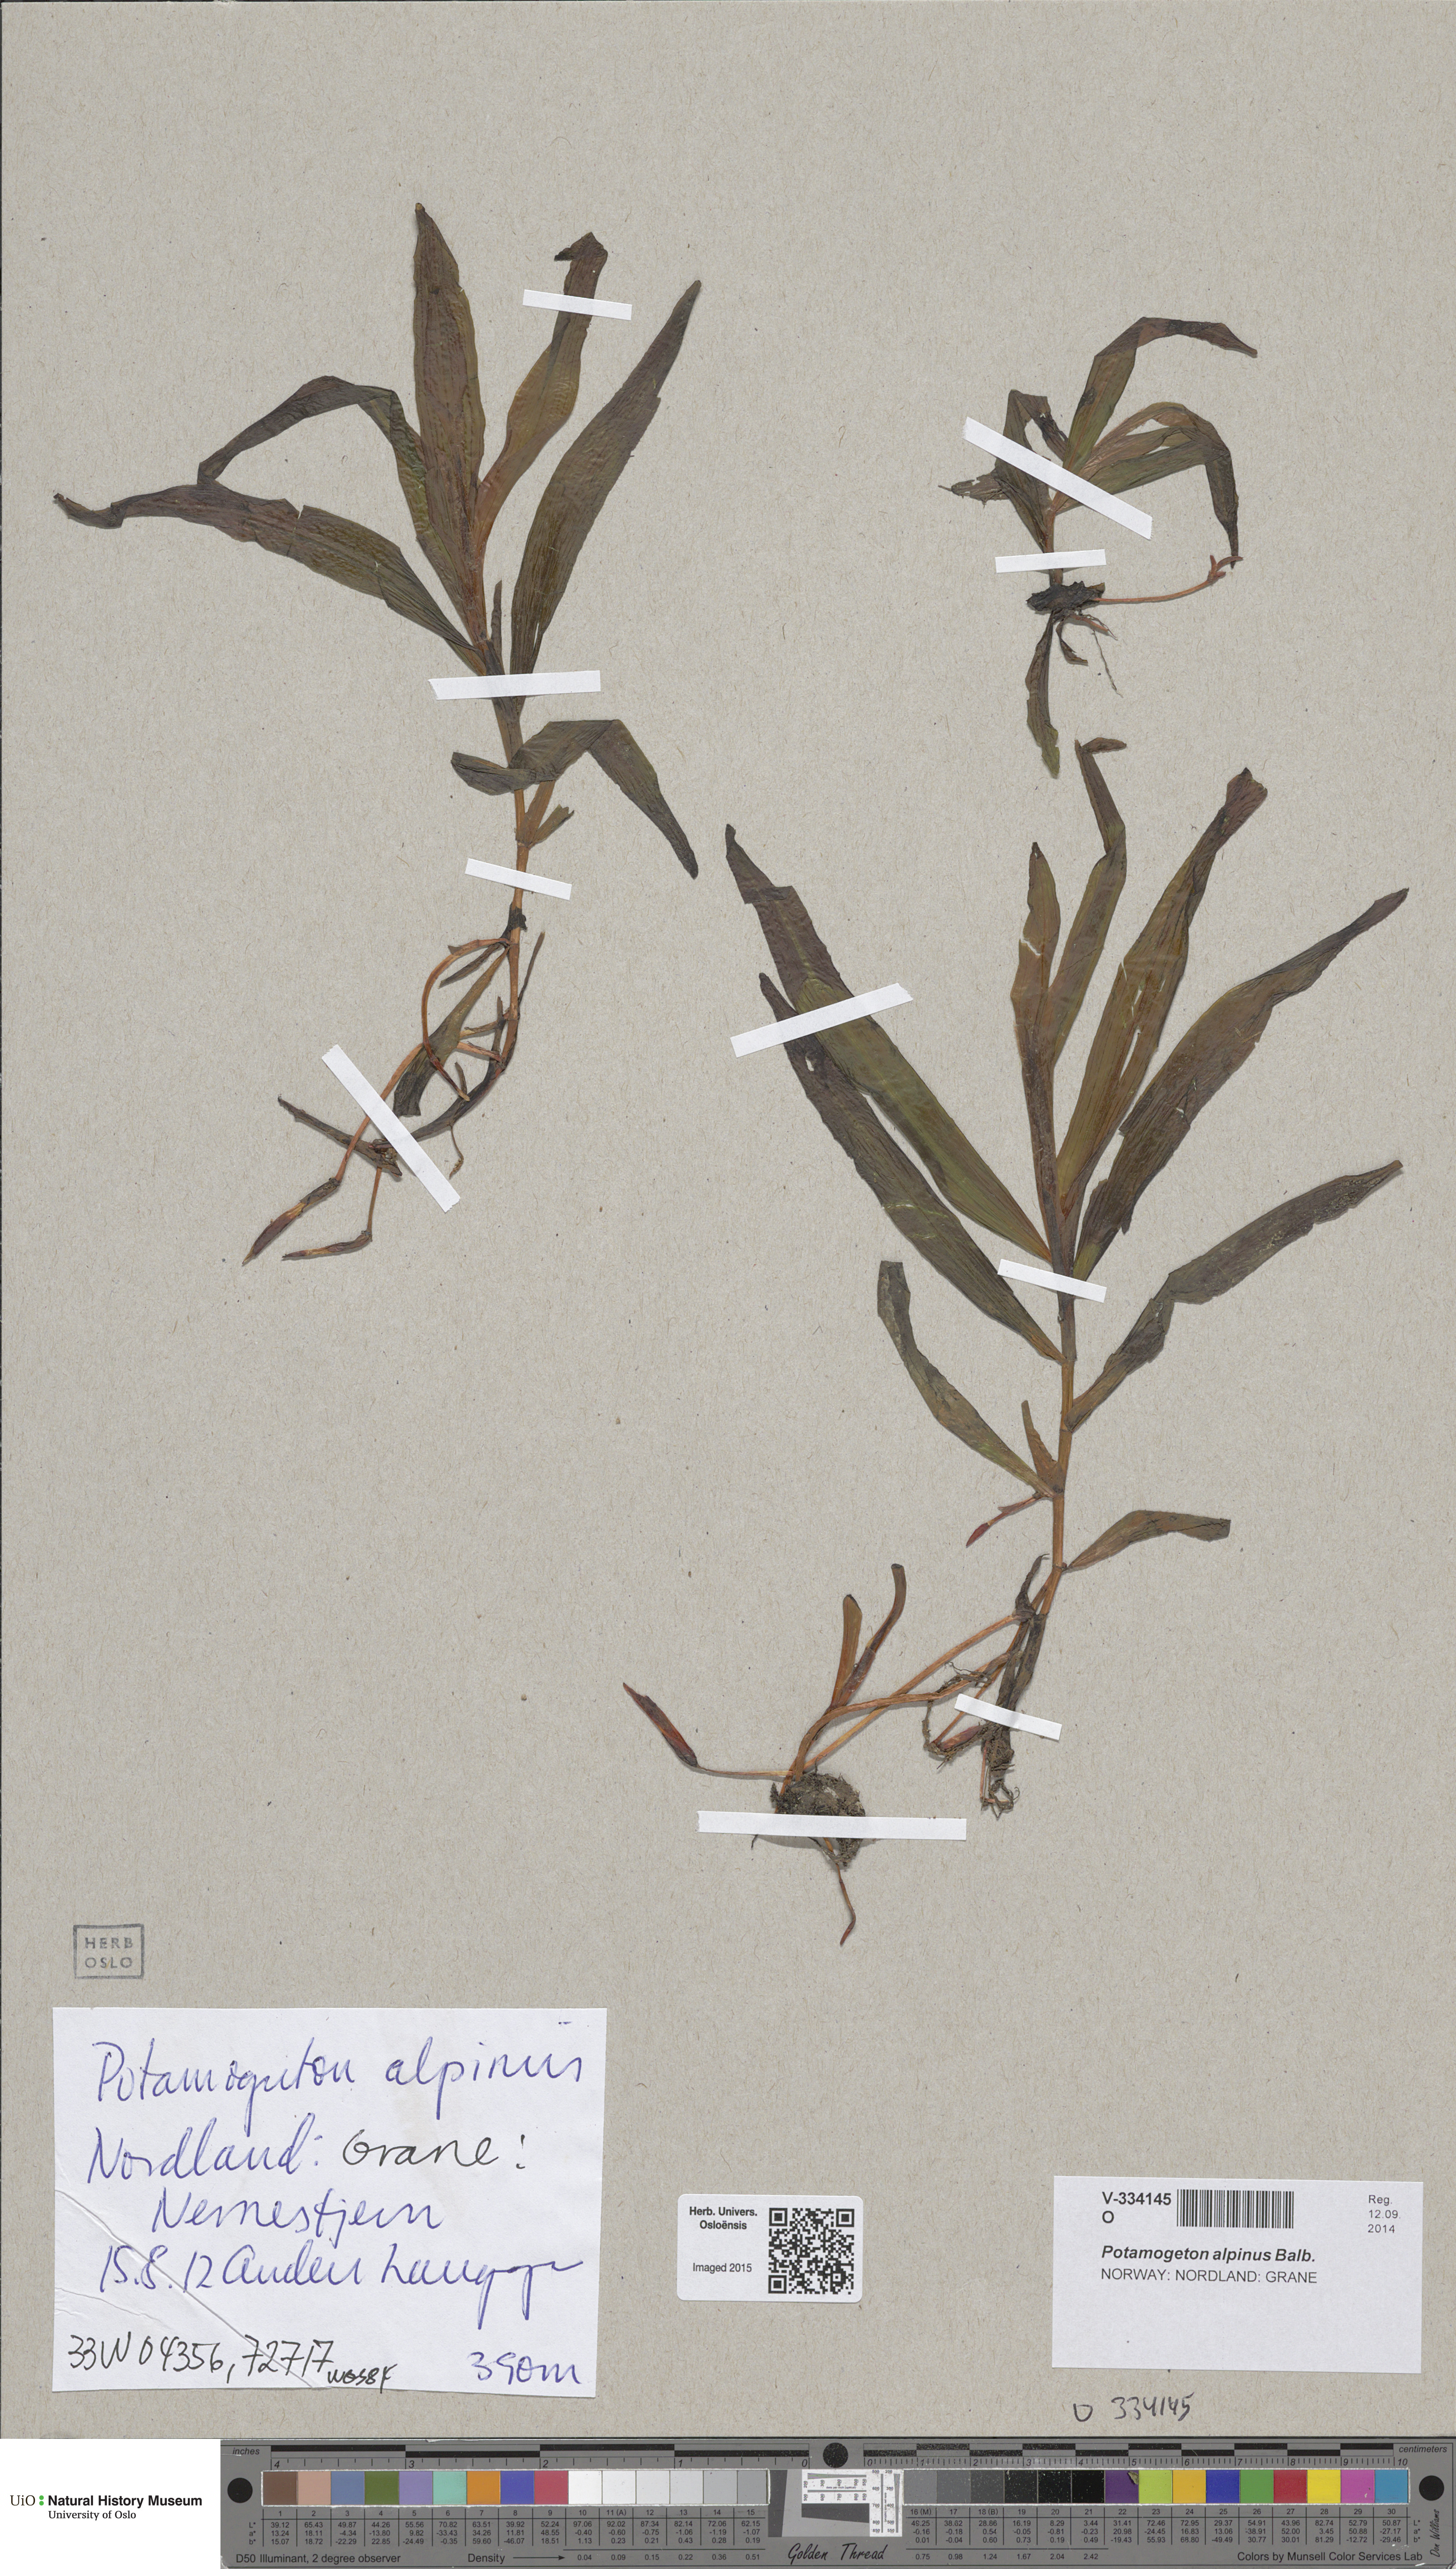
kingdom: Plantae
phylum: Tracheophyta
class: Liliopsida
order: Alismatales
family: Potamogetonaceae
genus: Potamogeton
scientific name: Potamogeton alpinus
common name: Red pondweed
